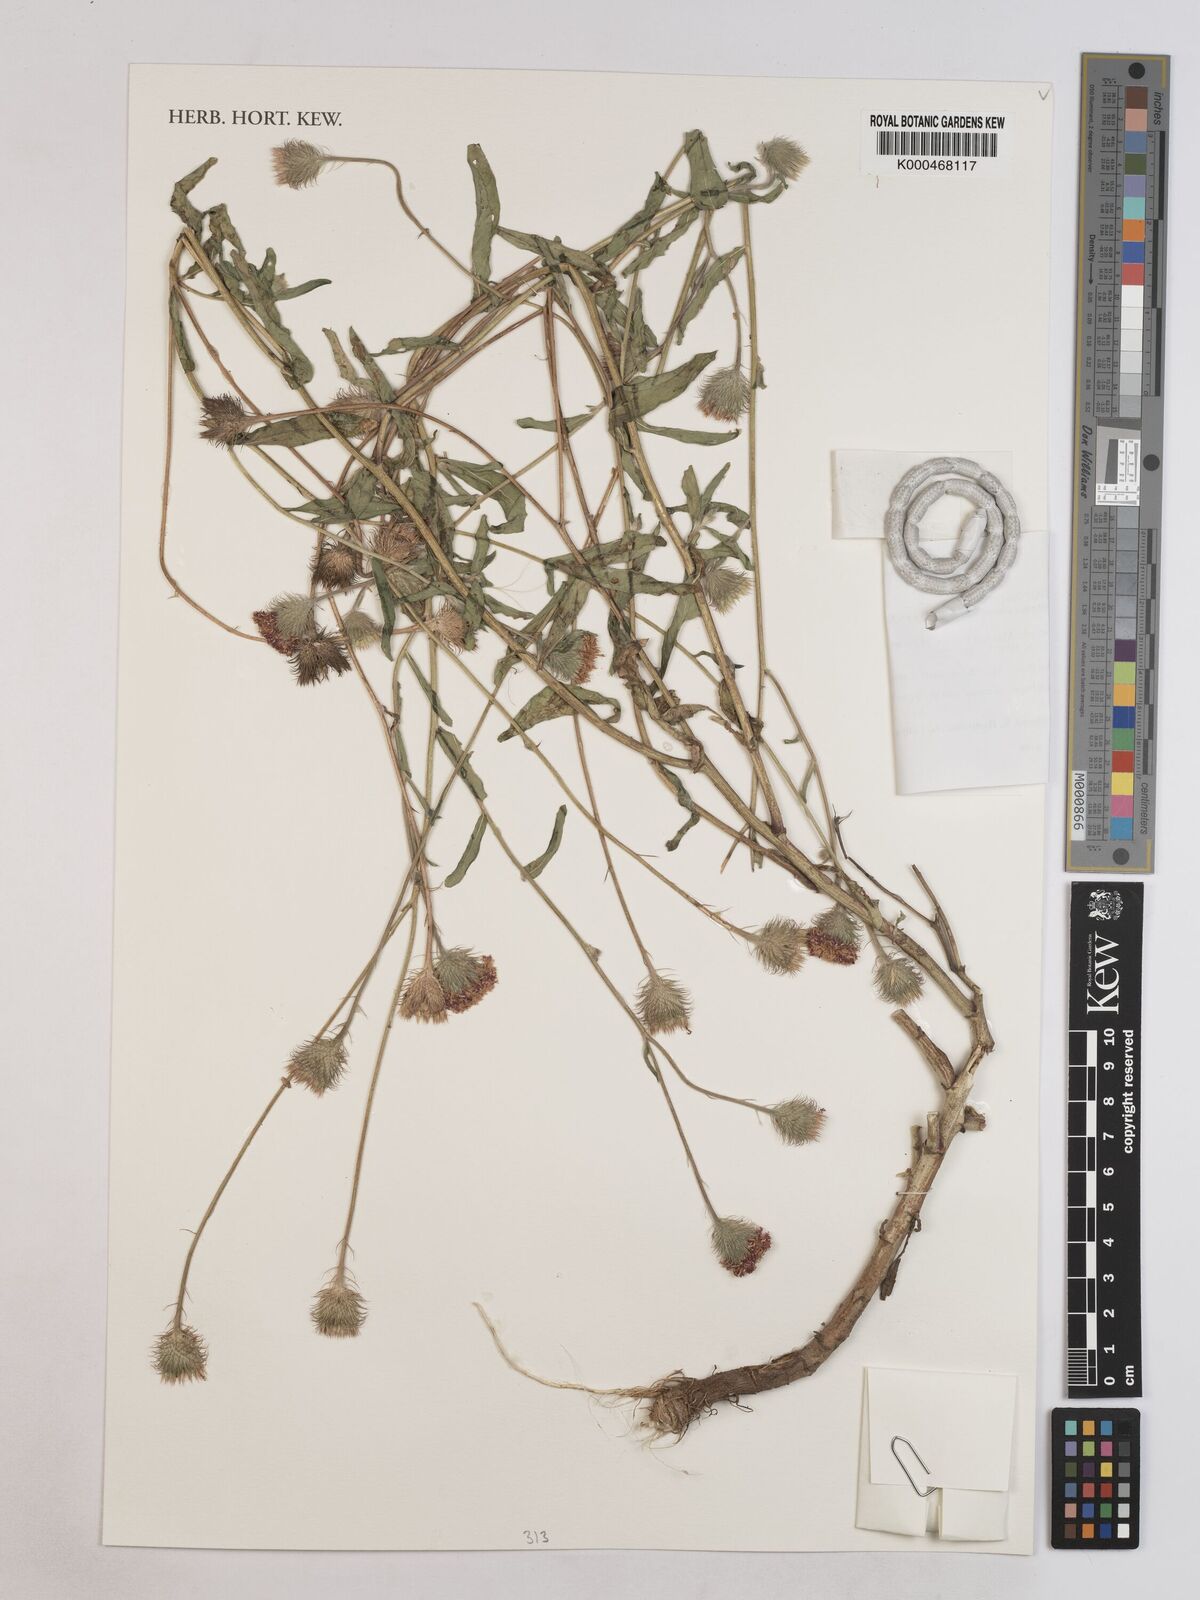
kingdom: Plantae
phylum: Tracheophyta
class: Magnoliopsida
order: Asterales
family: Asteraceae
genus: Erlangea
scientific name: Erlangea alternifolia
